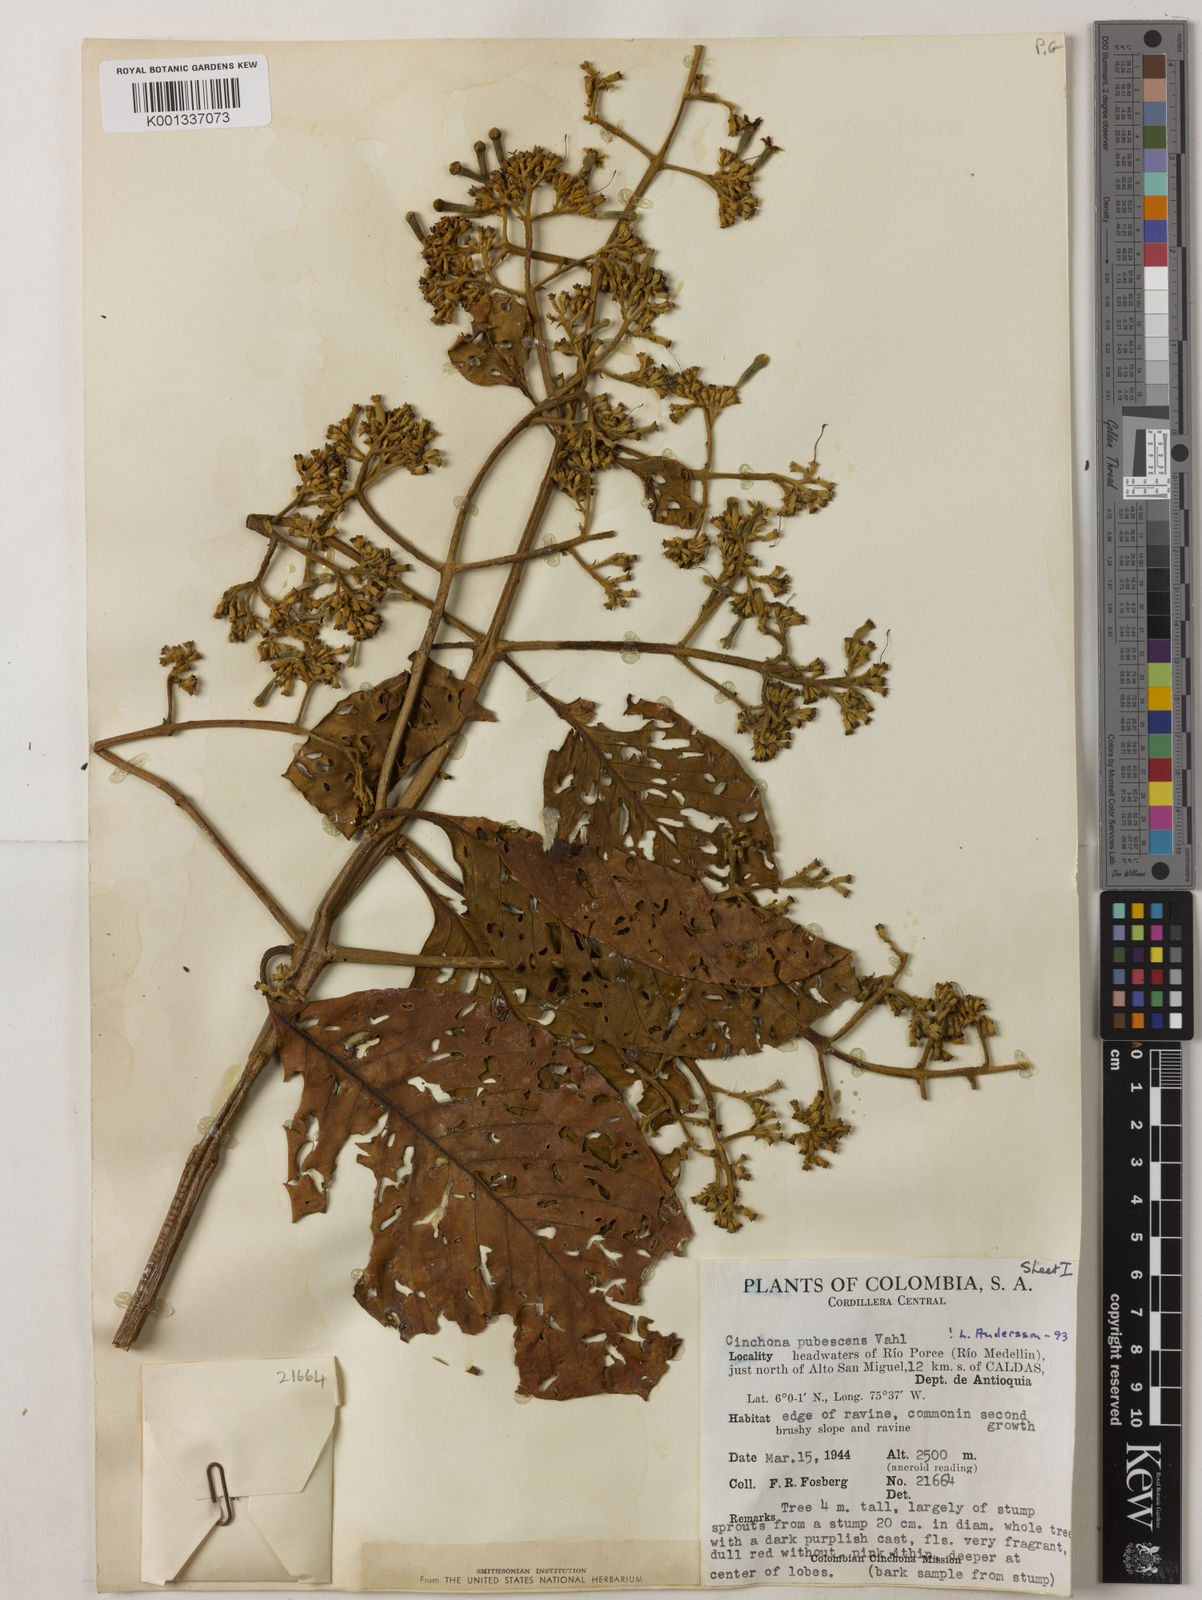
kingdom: Plantae
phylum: Tracheophyta
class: Magnoliopsida
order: Gentianales
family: Rubiaceae
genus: Cinchona
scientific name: Cinchona pubescens
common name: Quinine
